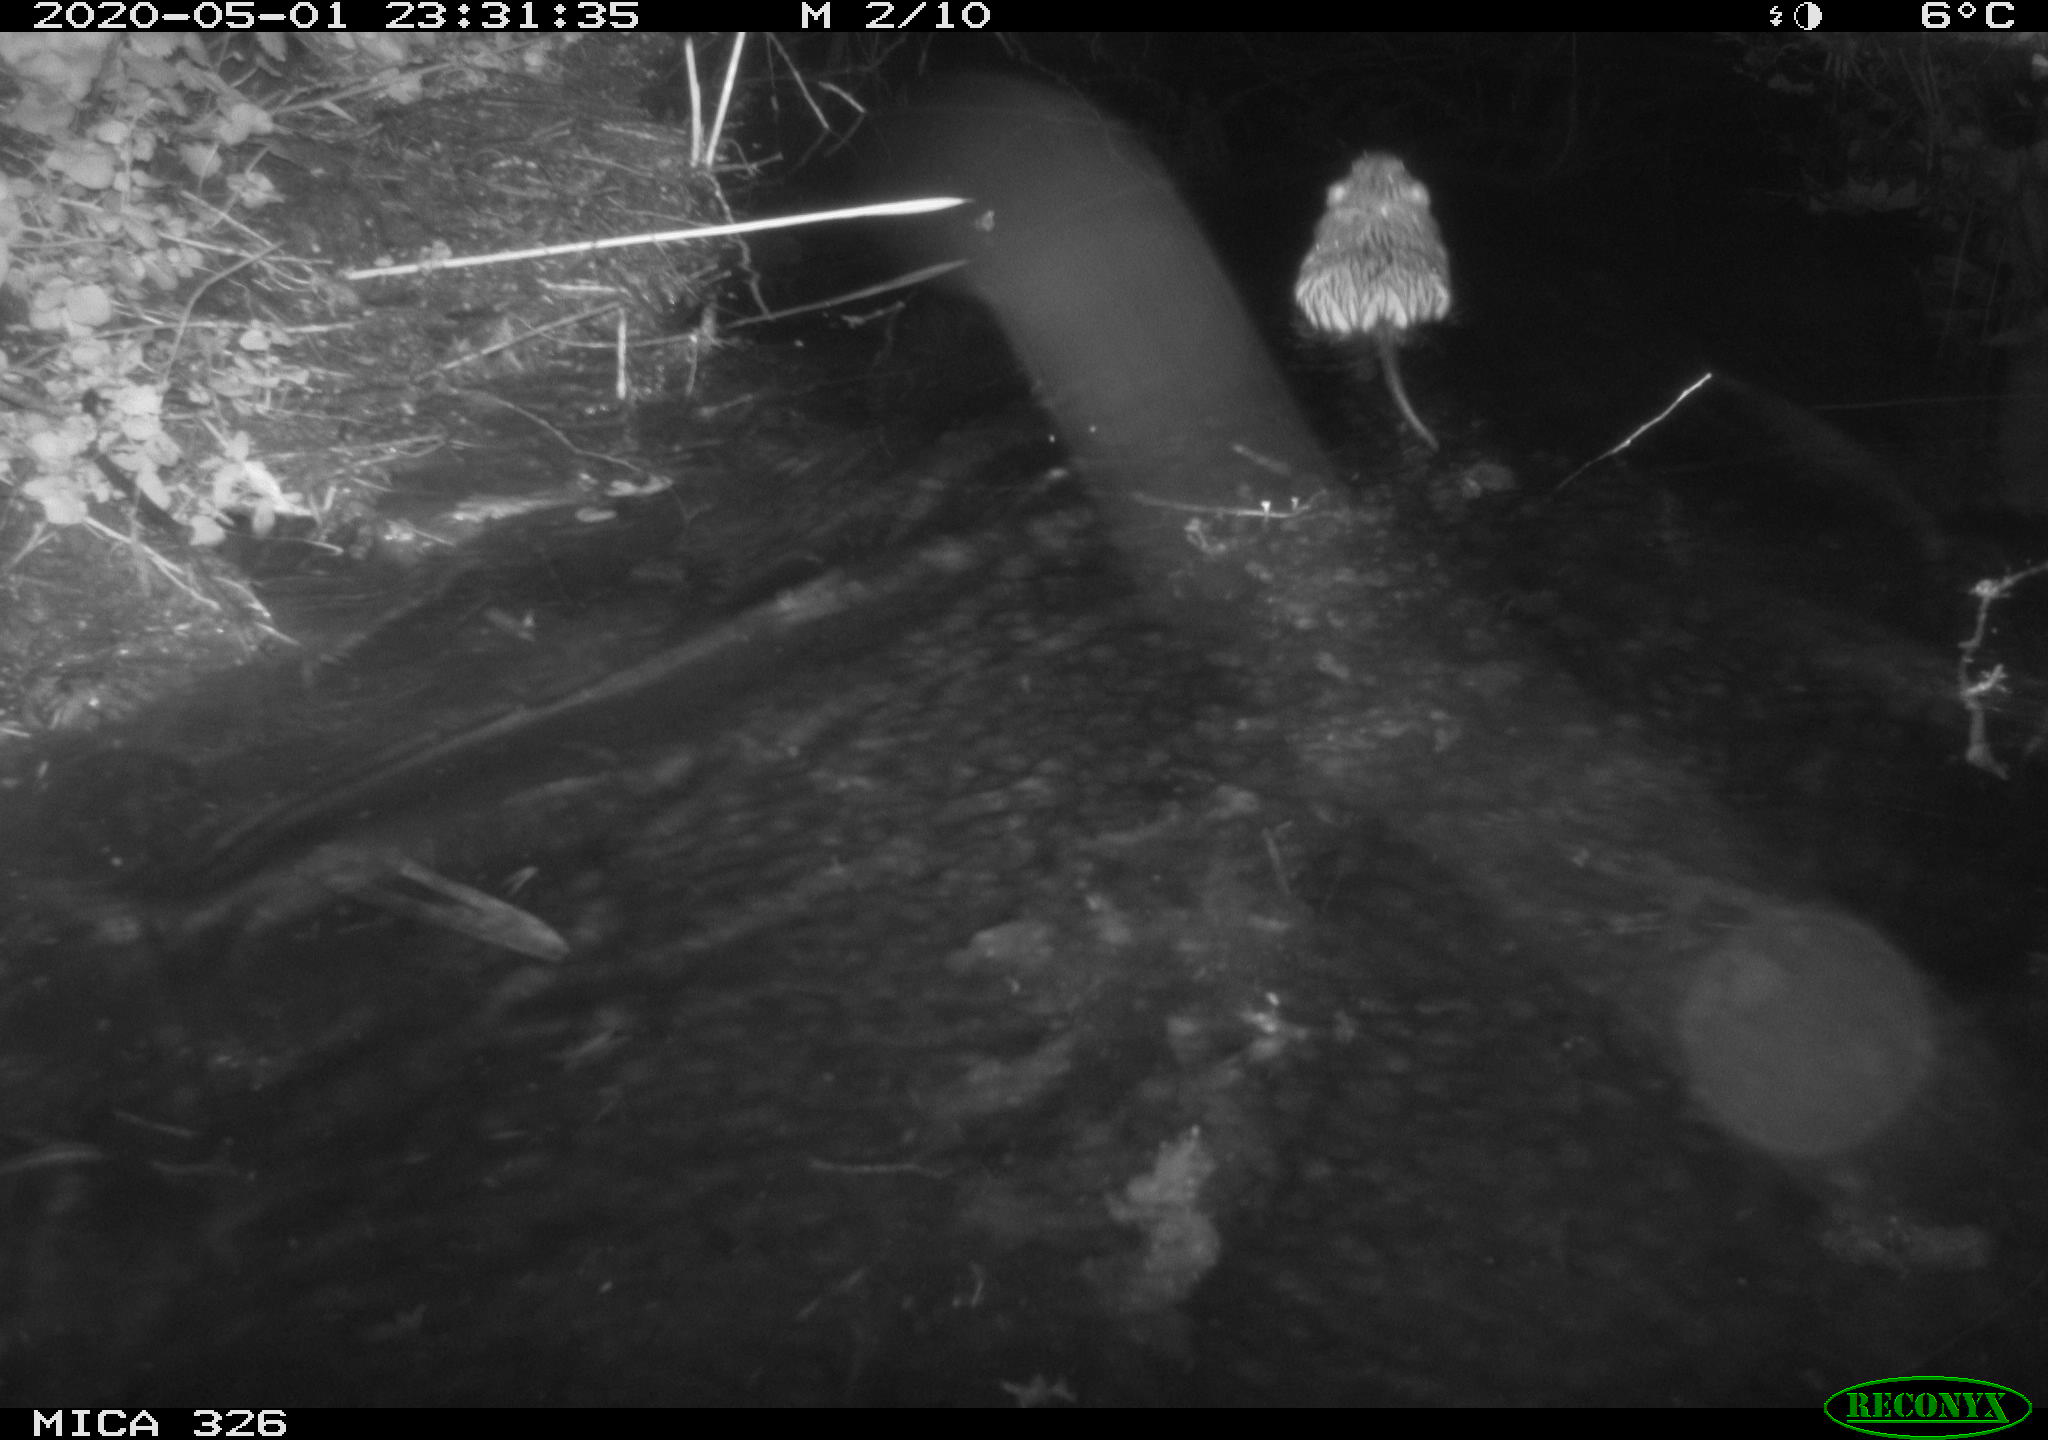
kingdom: Animalia
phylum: Chordata
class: Mammalia
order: Rodentia
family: Myocastoridae
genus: Myocastor
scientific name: Myocastor coypus
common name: Coypu
